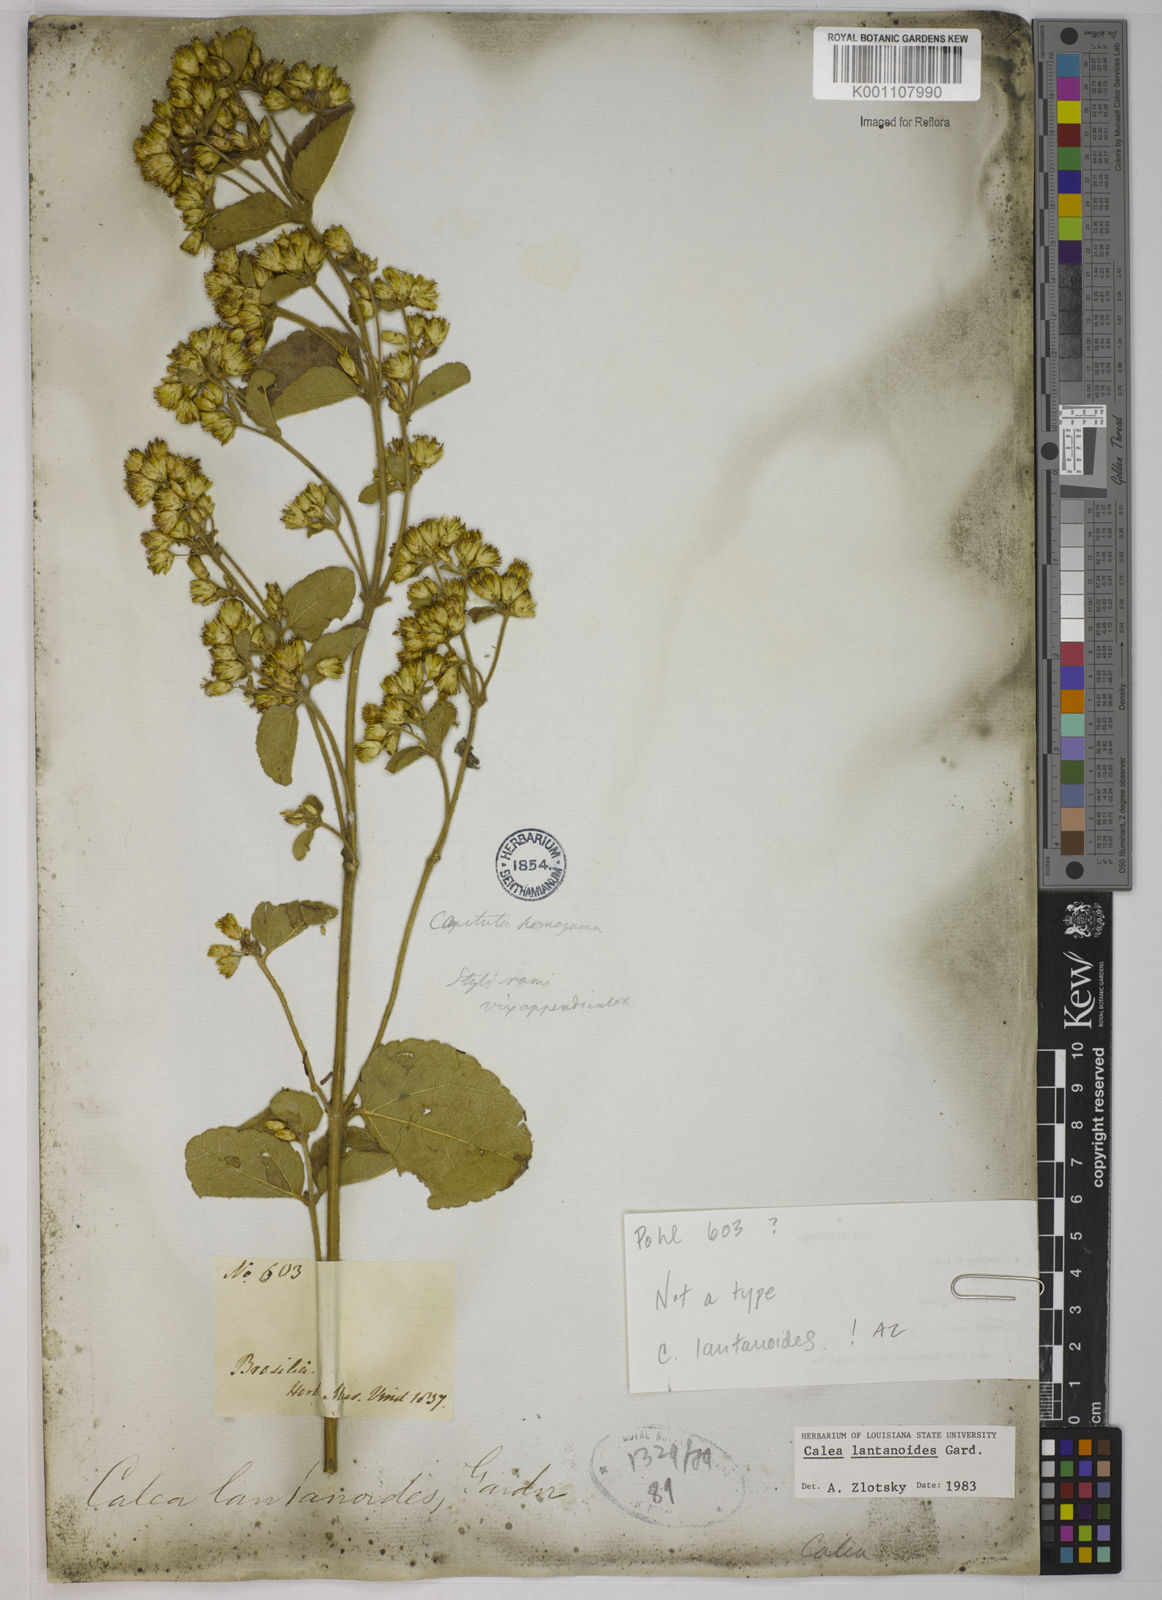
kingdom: Plantae
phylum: Tracheophyta
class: Magnoliopsida
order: Asterales
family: Asteraceae
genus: Calea
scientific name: Calea lantanoides
